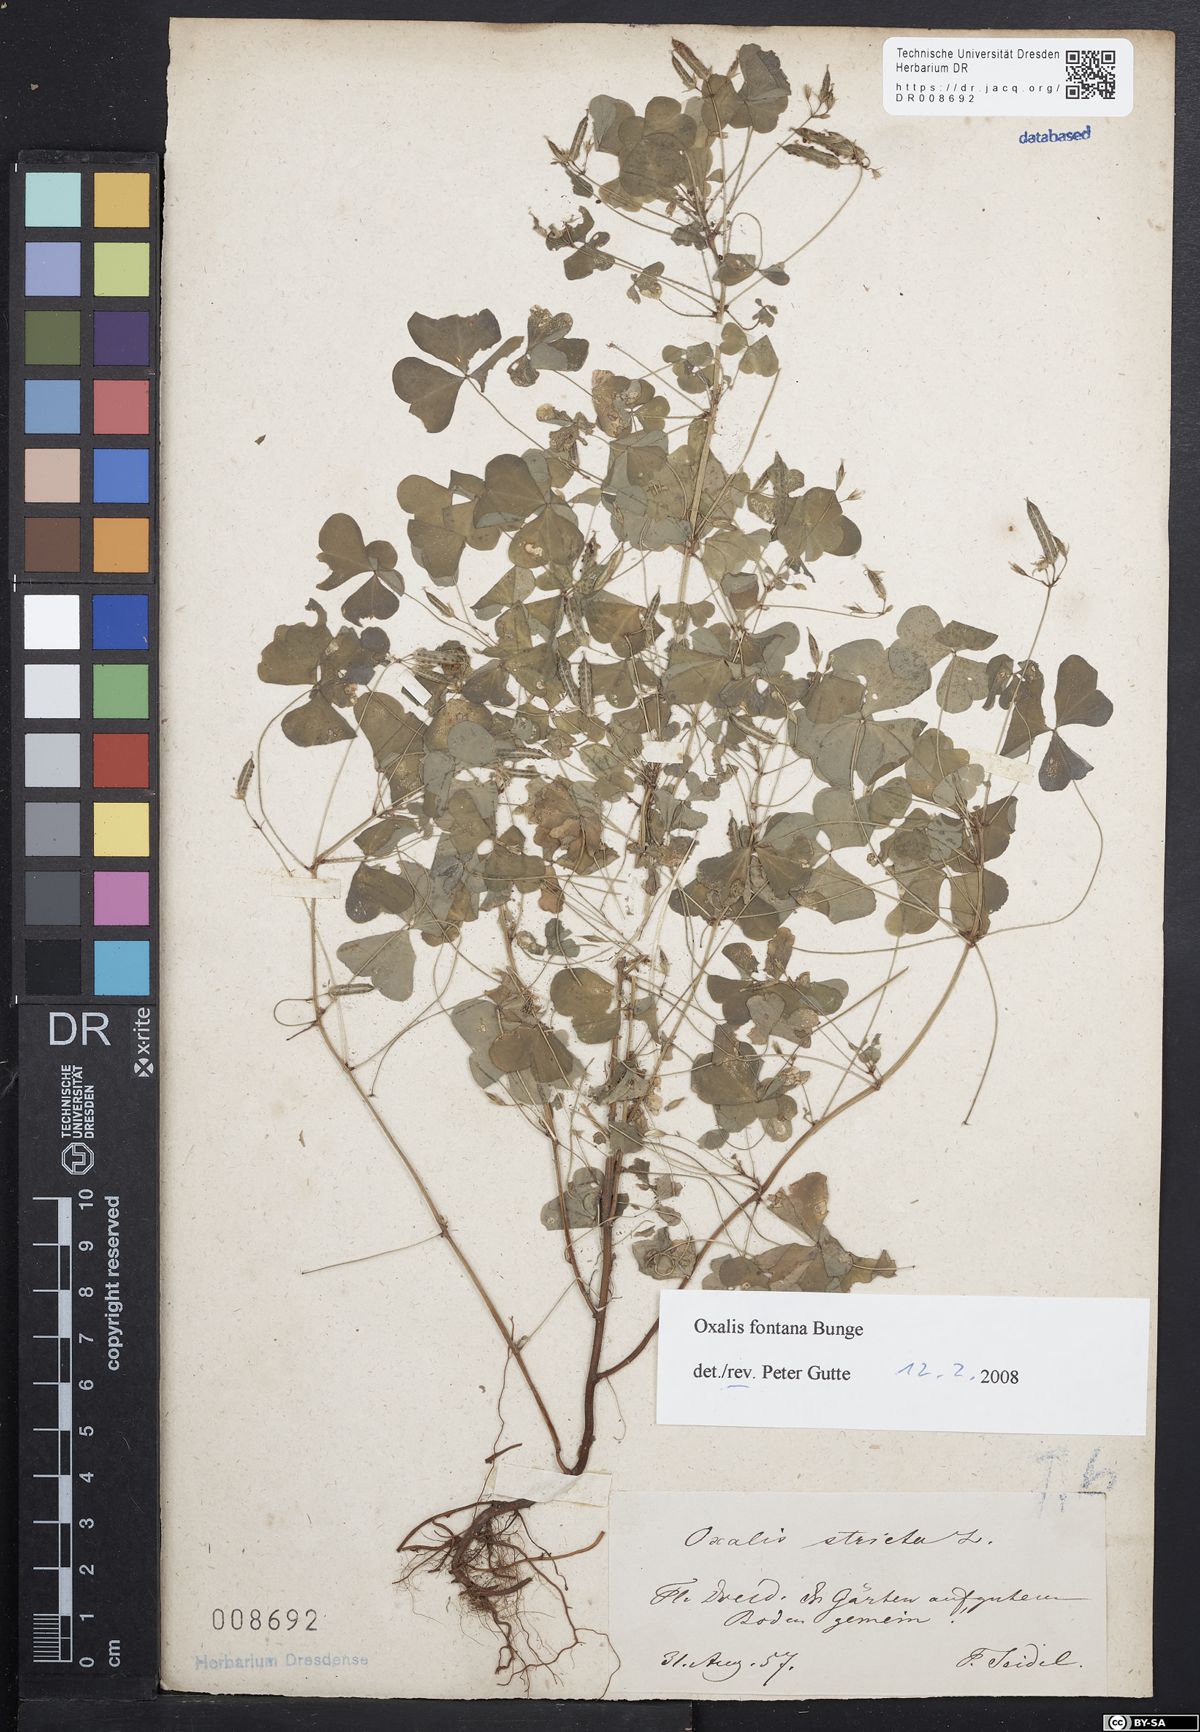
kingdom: Plantae
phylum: Tracheophyta
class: Magnoliopsida
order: Oxalidales
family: Oxalidaceae
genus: Oxalis
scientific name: Oxalis stricta
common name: Upright yellow-sorrel
